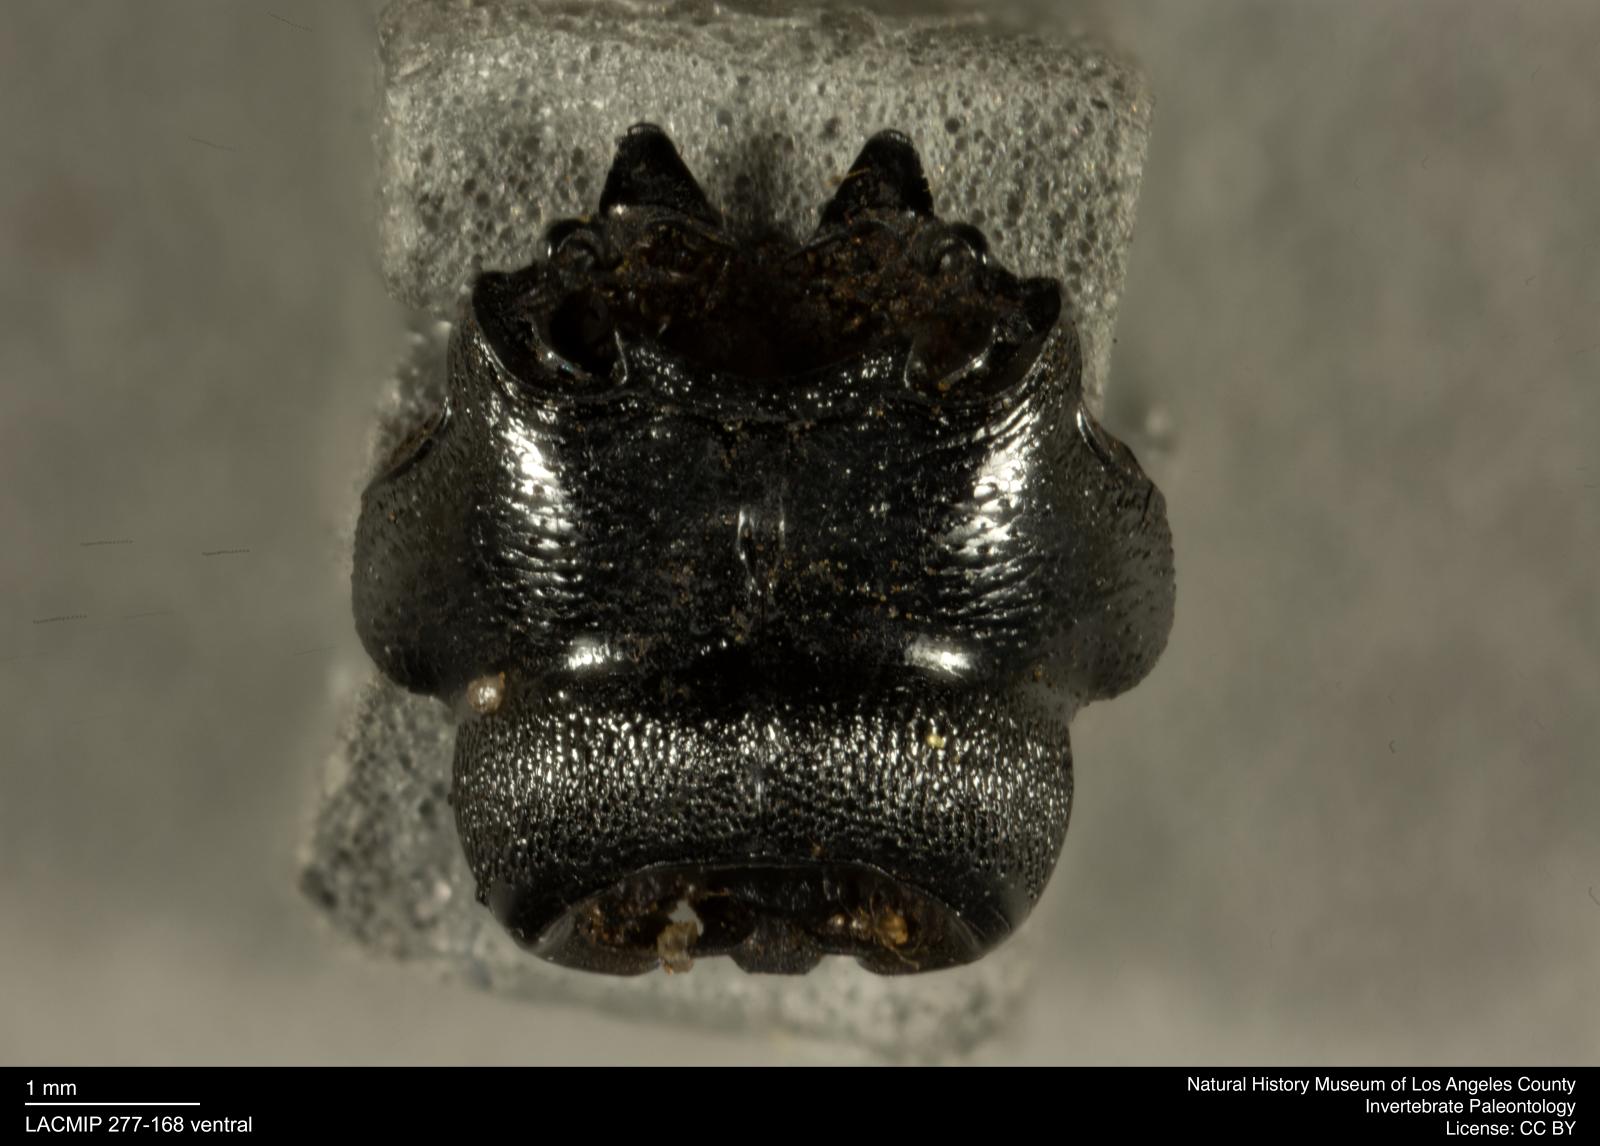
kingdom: Animalia
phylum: Arthropoda
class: Insecta
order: Coleoptera
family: Staphylinidae
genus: Nicrophorus
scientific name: Nicrophorus marginatus
